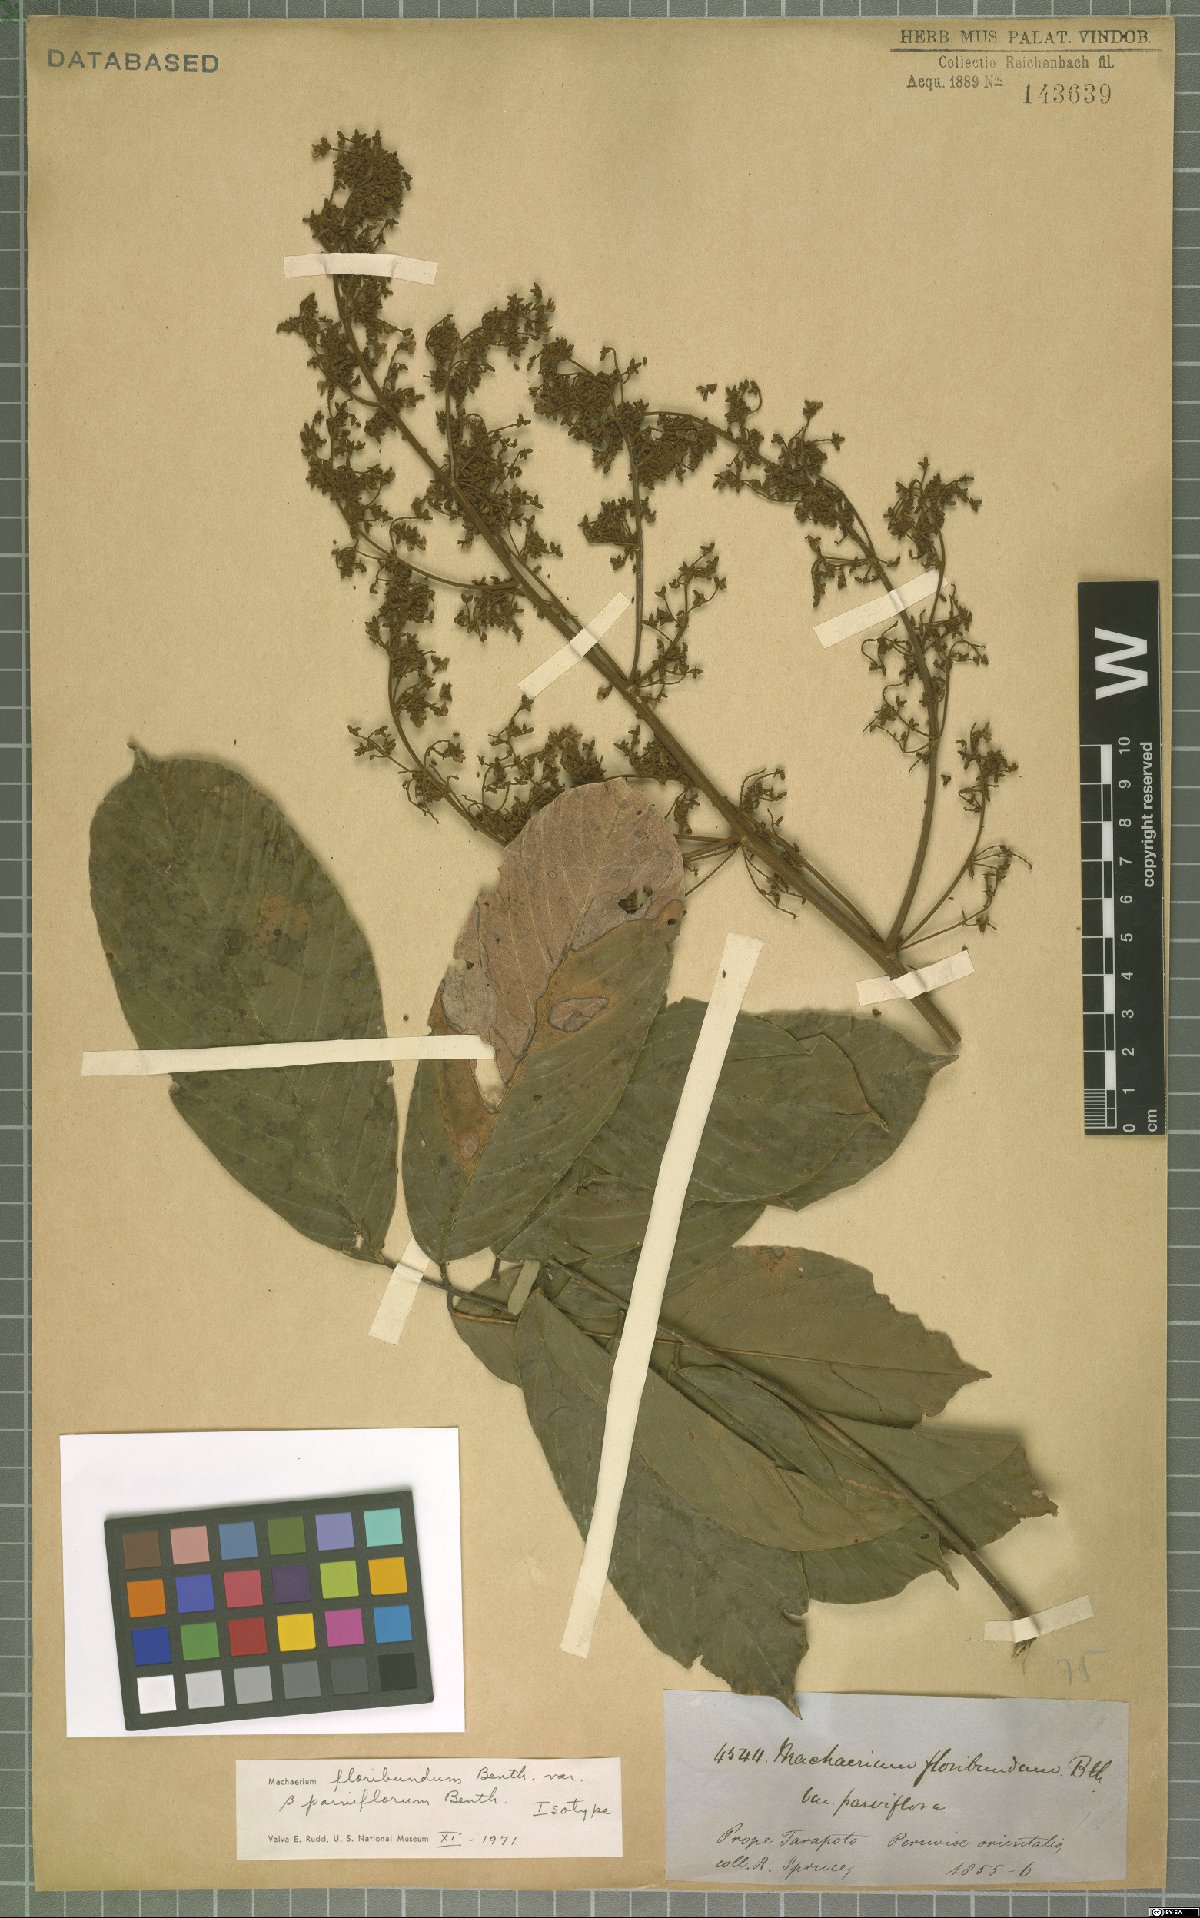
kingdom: Plantae
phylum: Tracheophyta
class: Magnoliopsida
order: Fabales
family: Fabaceae
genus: Machaerium
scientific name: Machaerium floribundum
